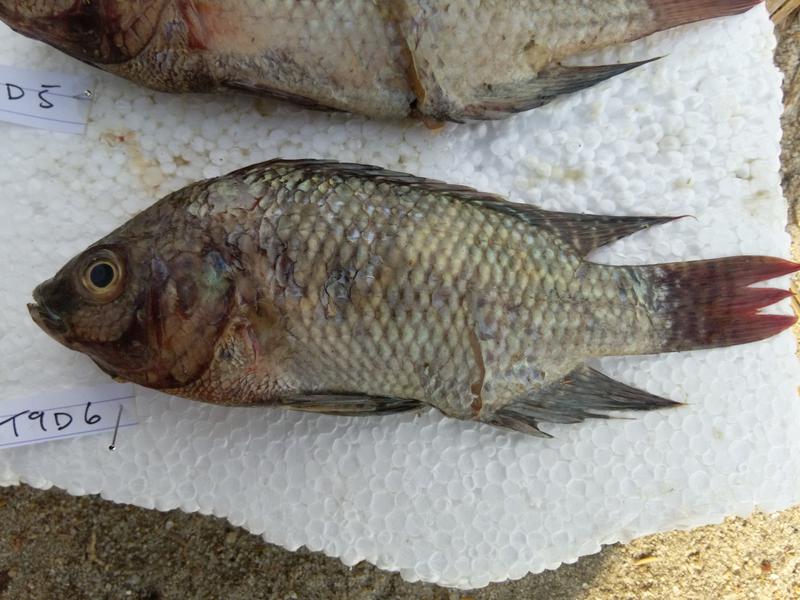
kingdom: Animalia
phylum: Chordata
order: Perciformes
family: Cichlidae
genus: Oreochromis
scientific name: Oreochromis niloticus
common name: Nile tilapia
